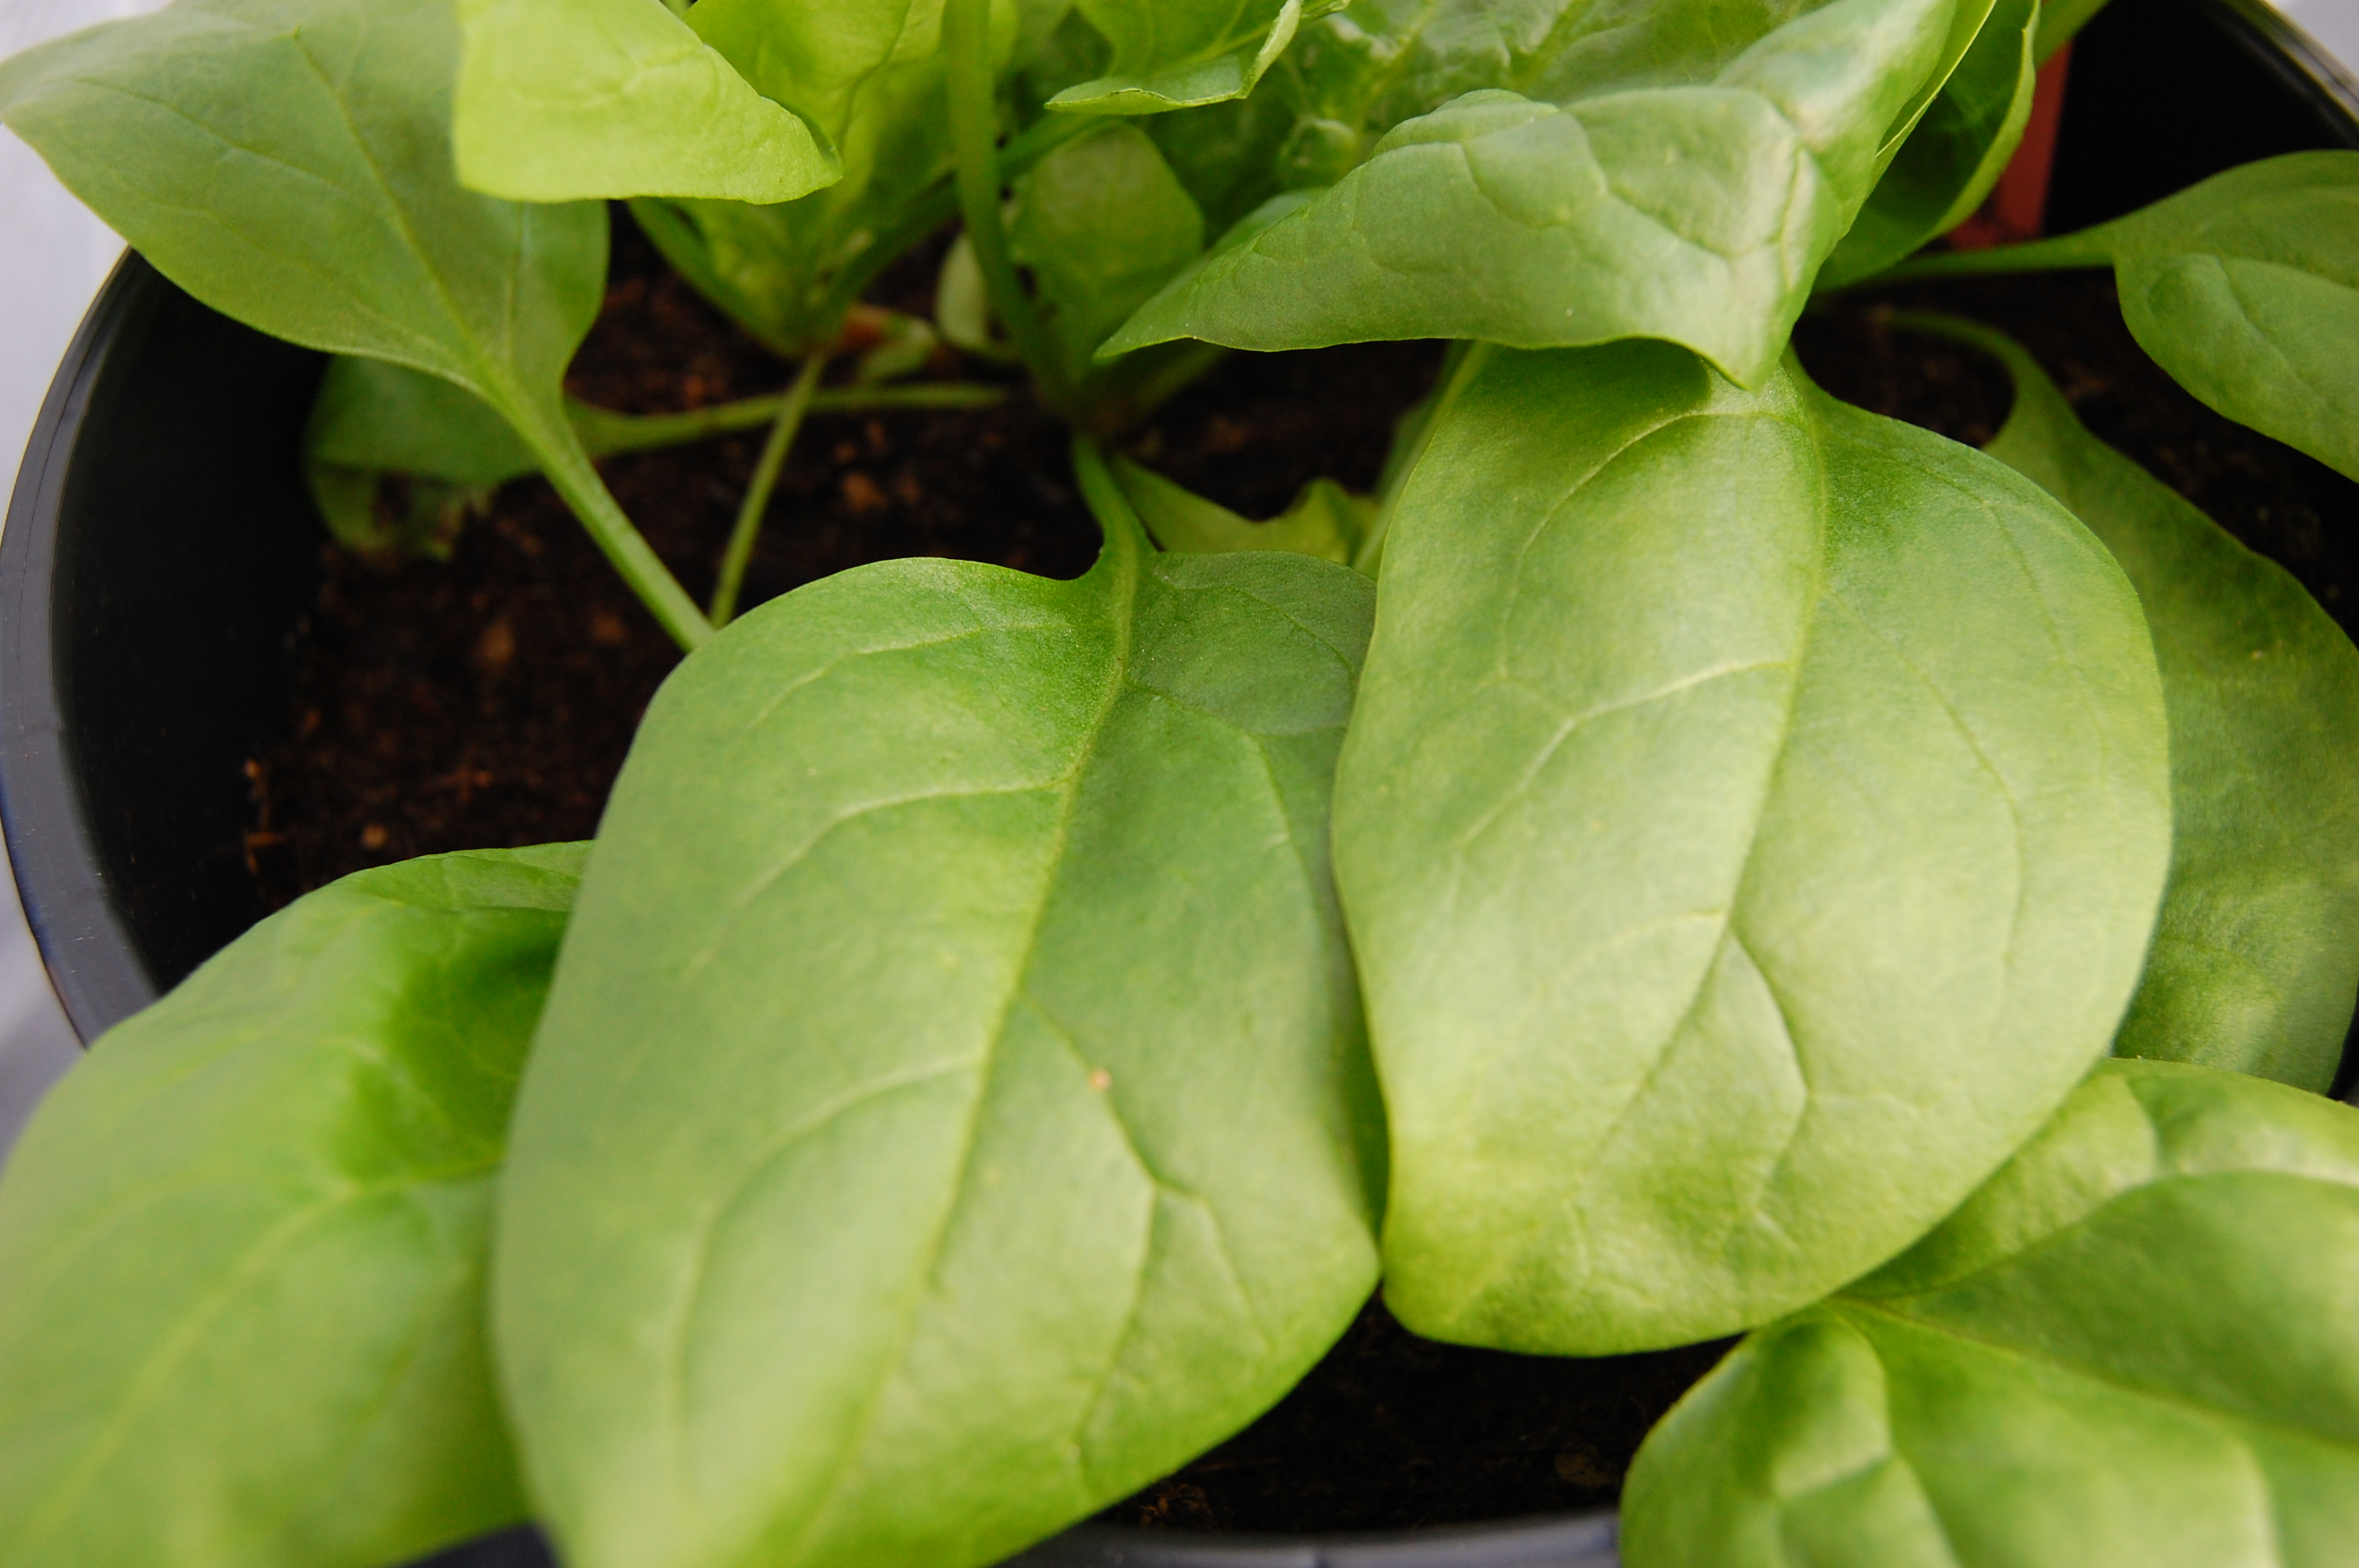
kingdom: Plantae
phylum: Tracheophyta
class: Magnoliopsida
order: Caryophyllales
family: Amaranthaceae
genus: Spinacia
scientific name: Spinacia oleracea
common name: Spinach
